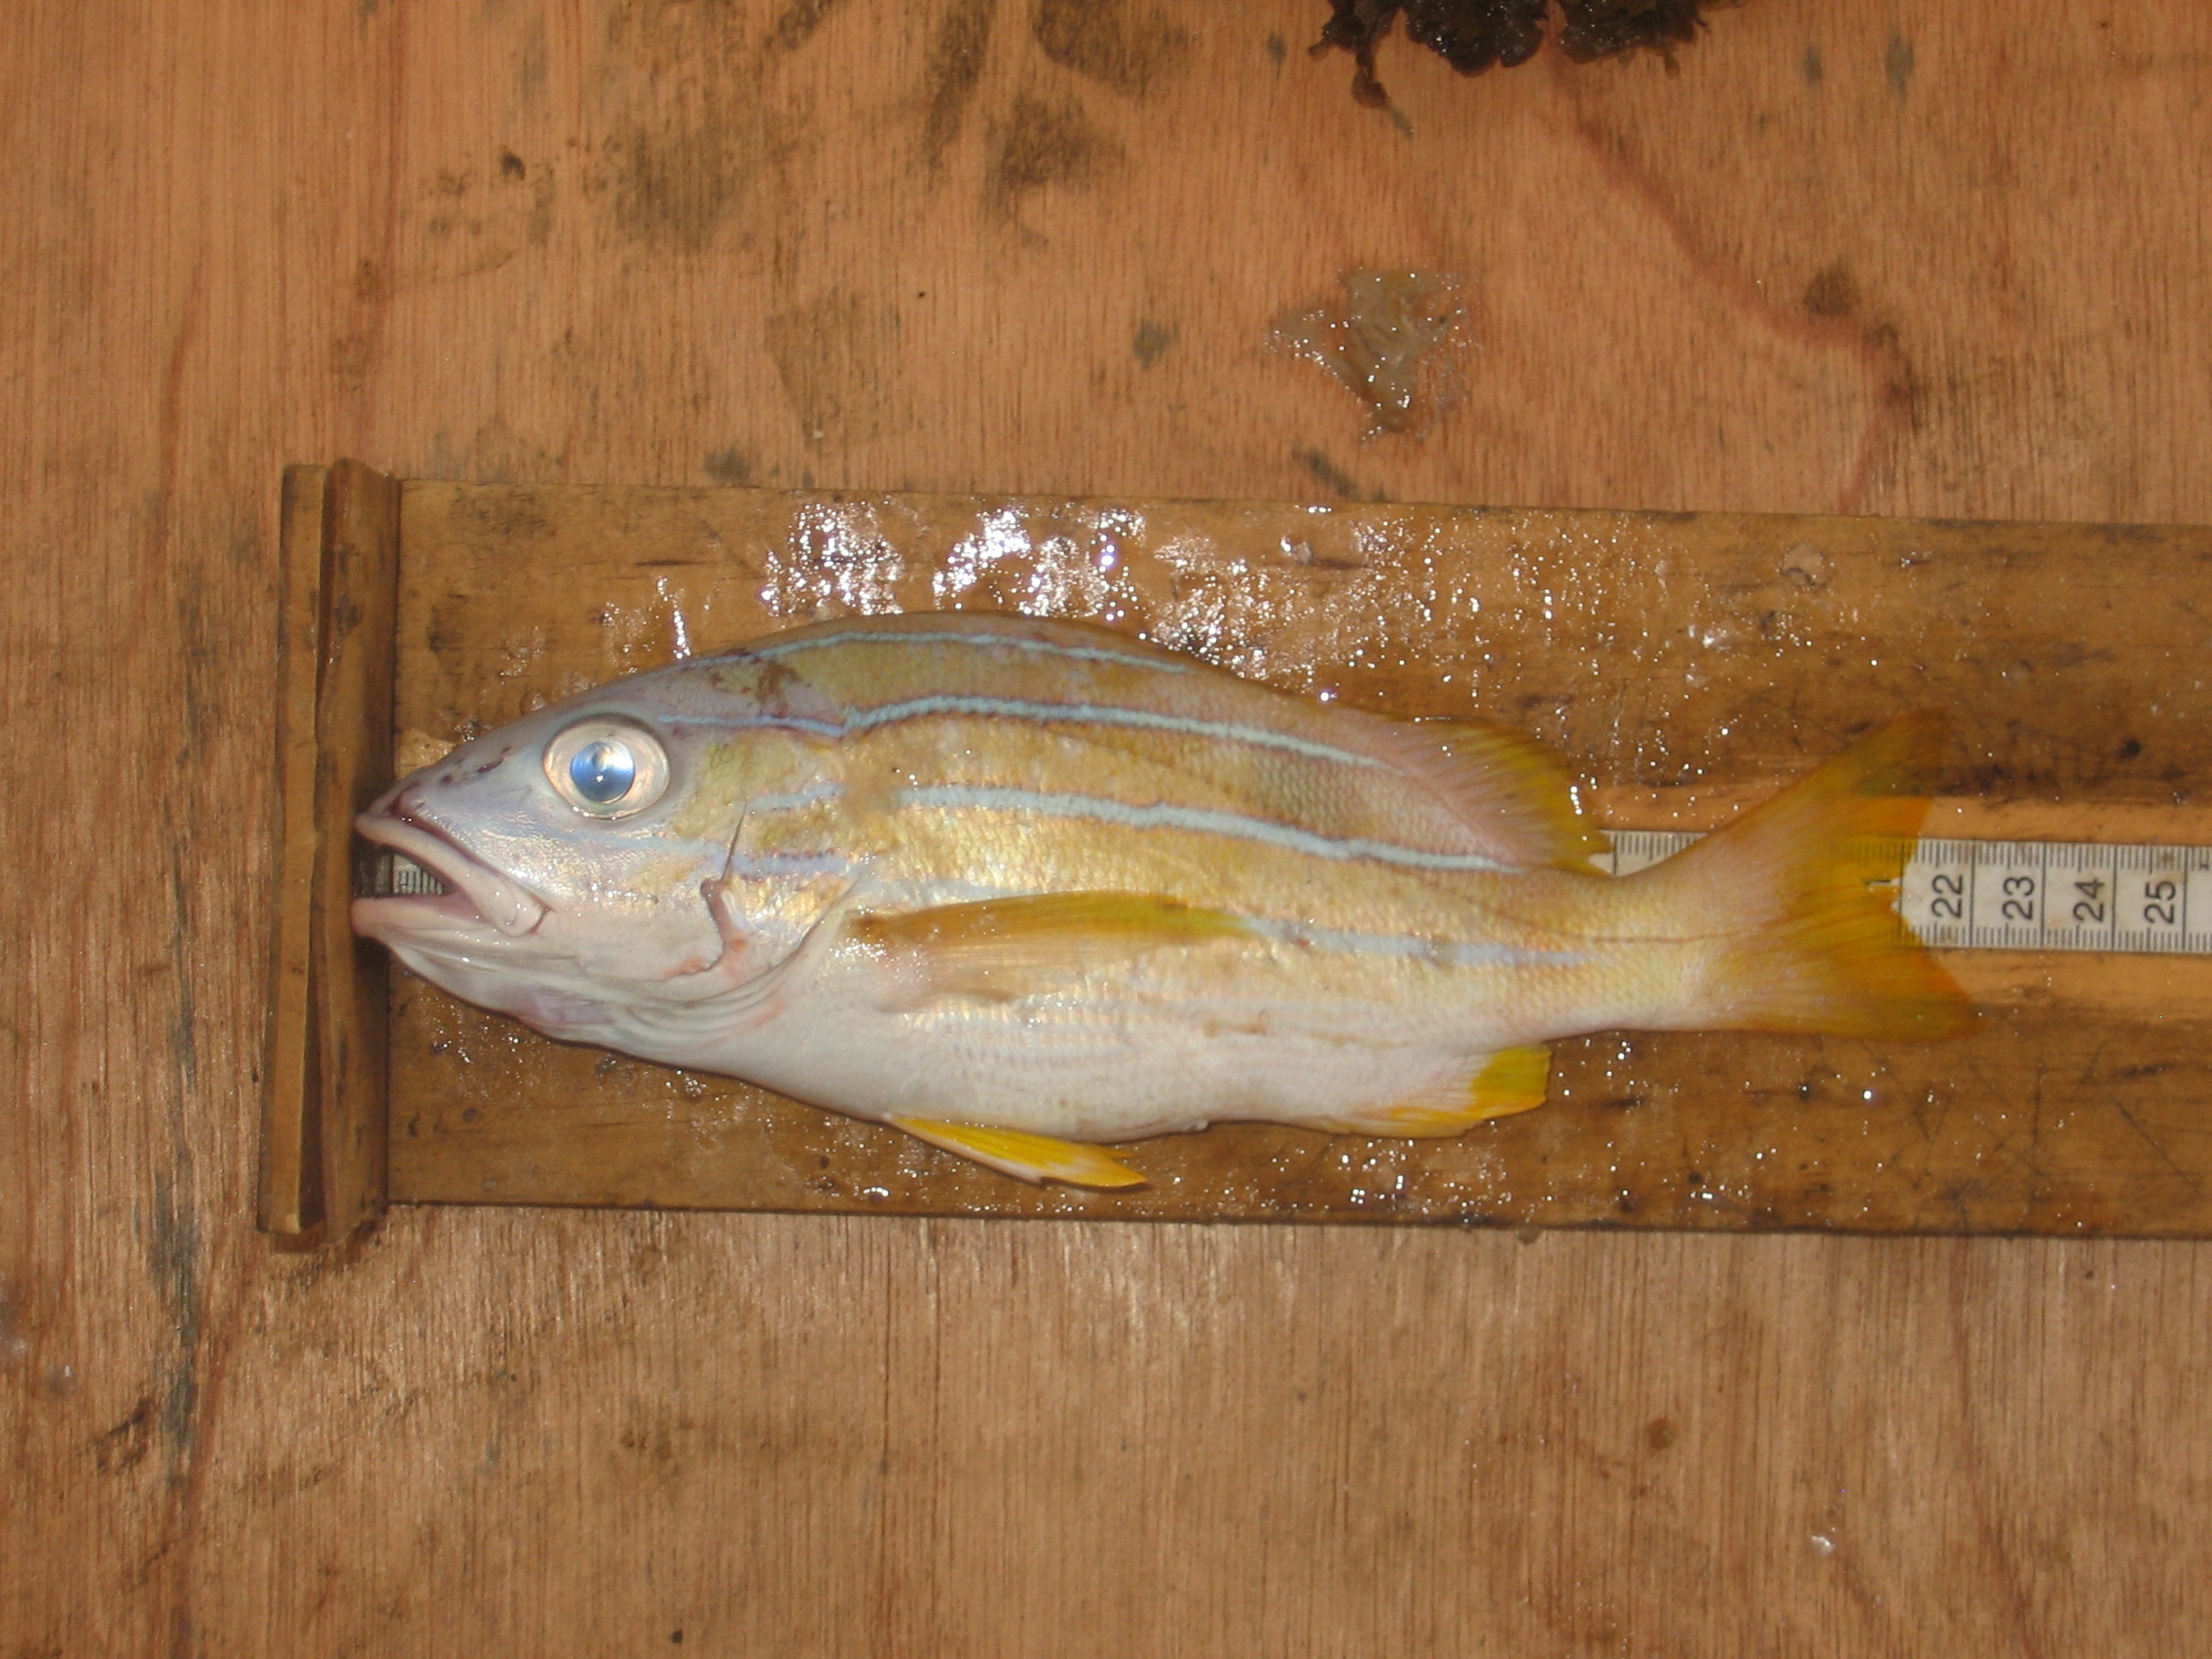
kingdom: Animalia
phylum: Chordata
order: Perciformes
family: Lutjanidae
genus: Lutjanus
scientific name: Lutjanus kasmira
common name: Common bluestripe snapper
